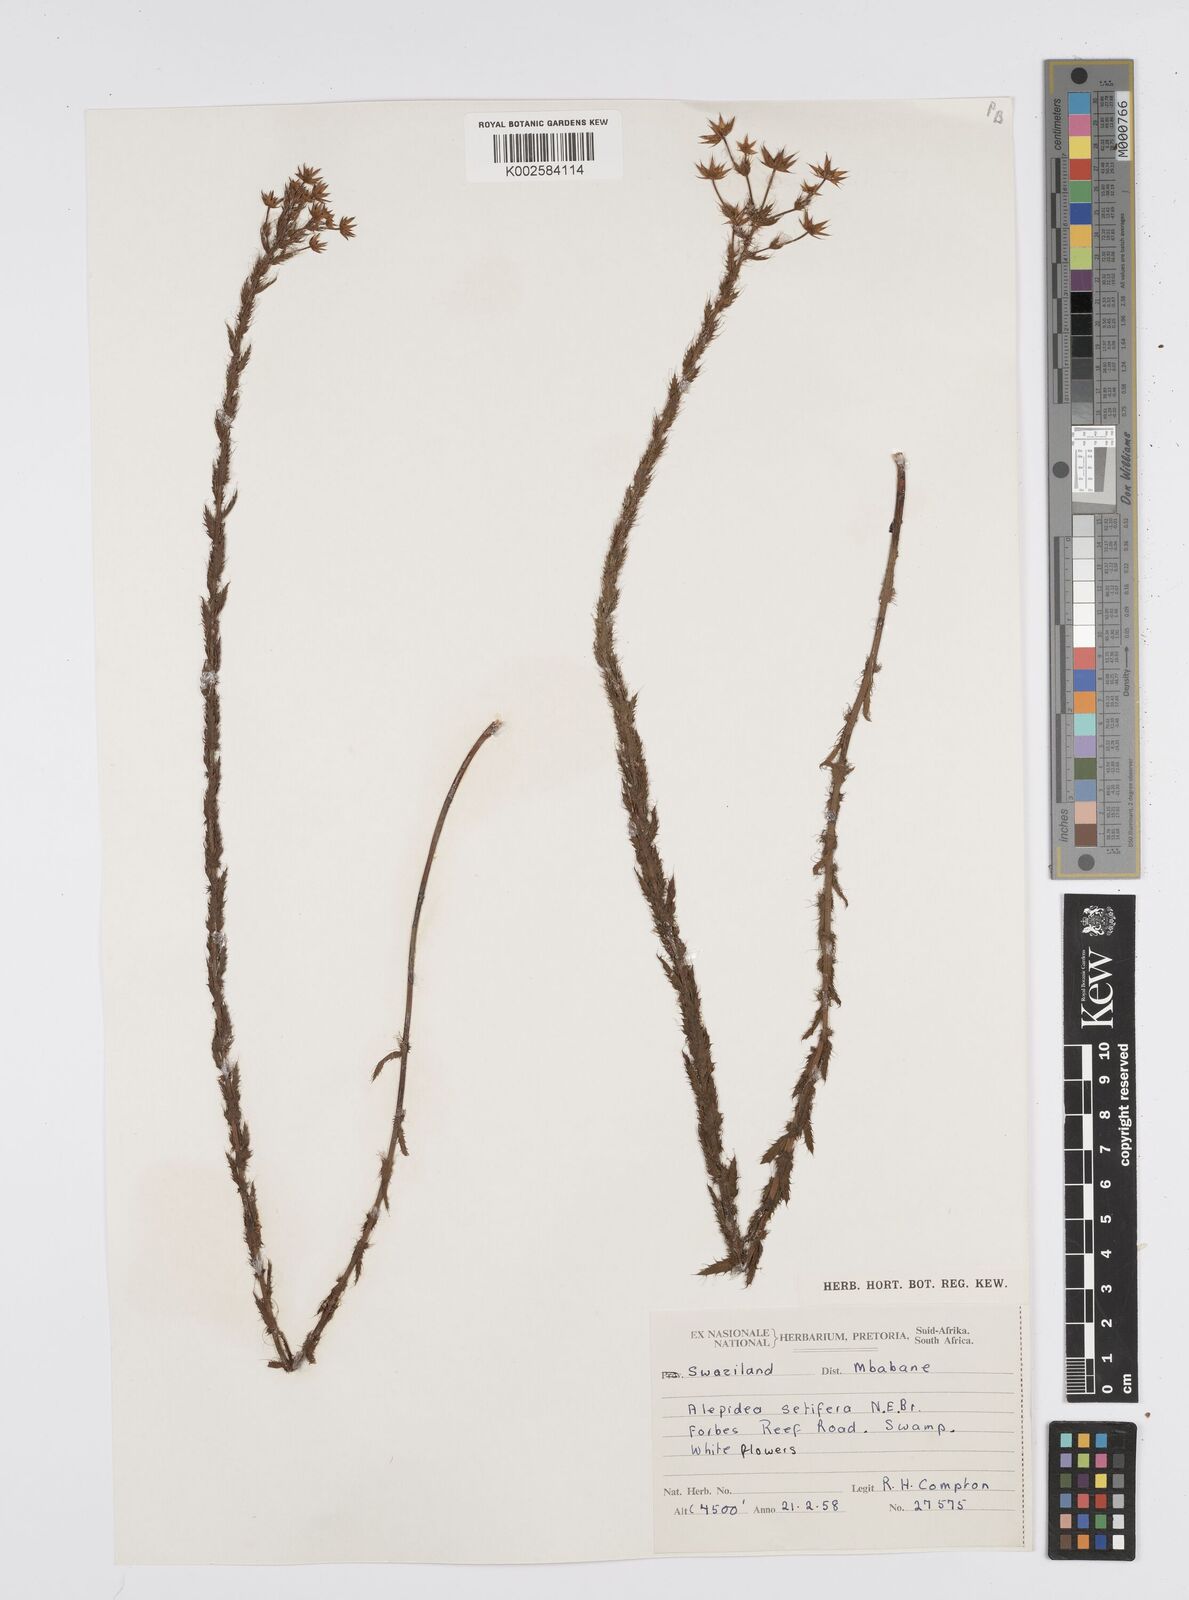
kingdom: Plantae
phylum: Tracheophyta
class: Magnoliopsida
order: Apiales
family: Apiaceae
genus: Alepidea
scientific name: Alepidea setifera
